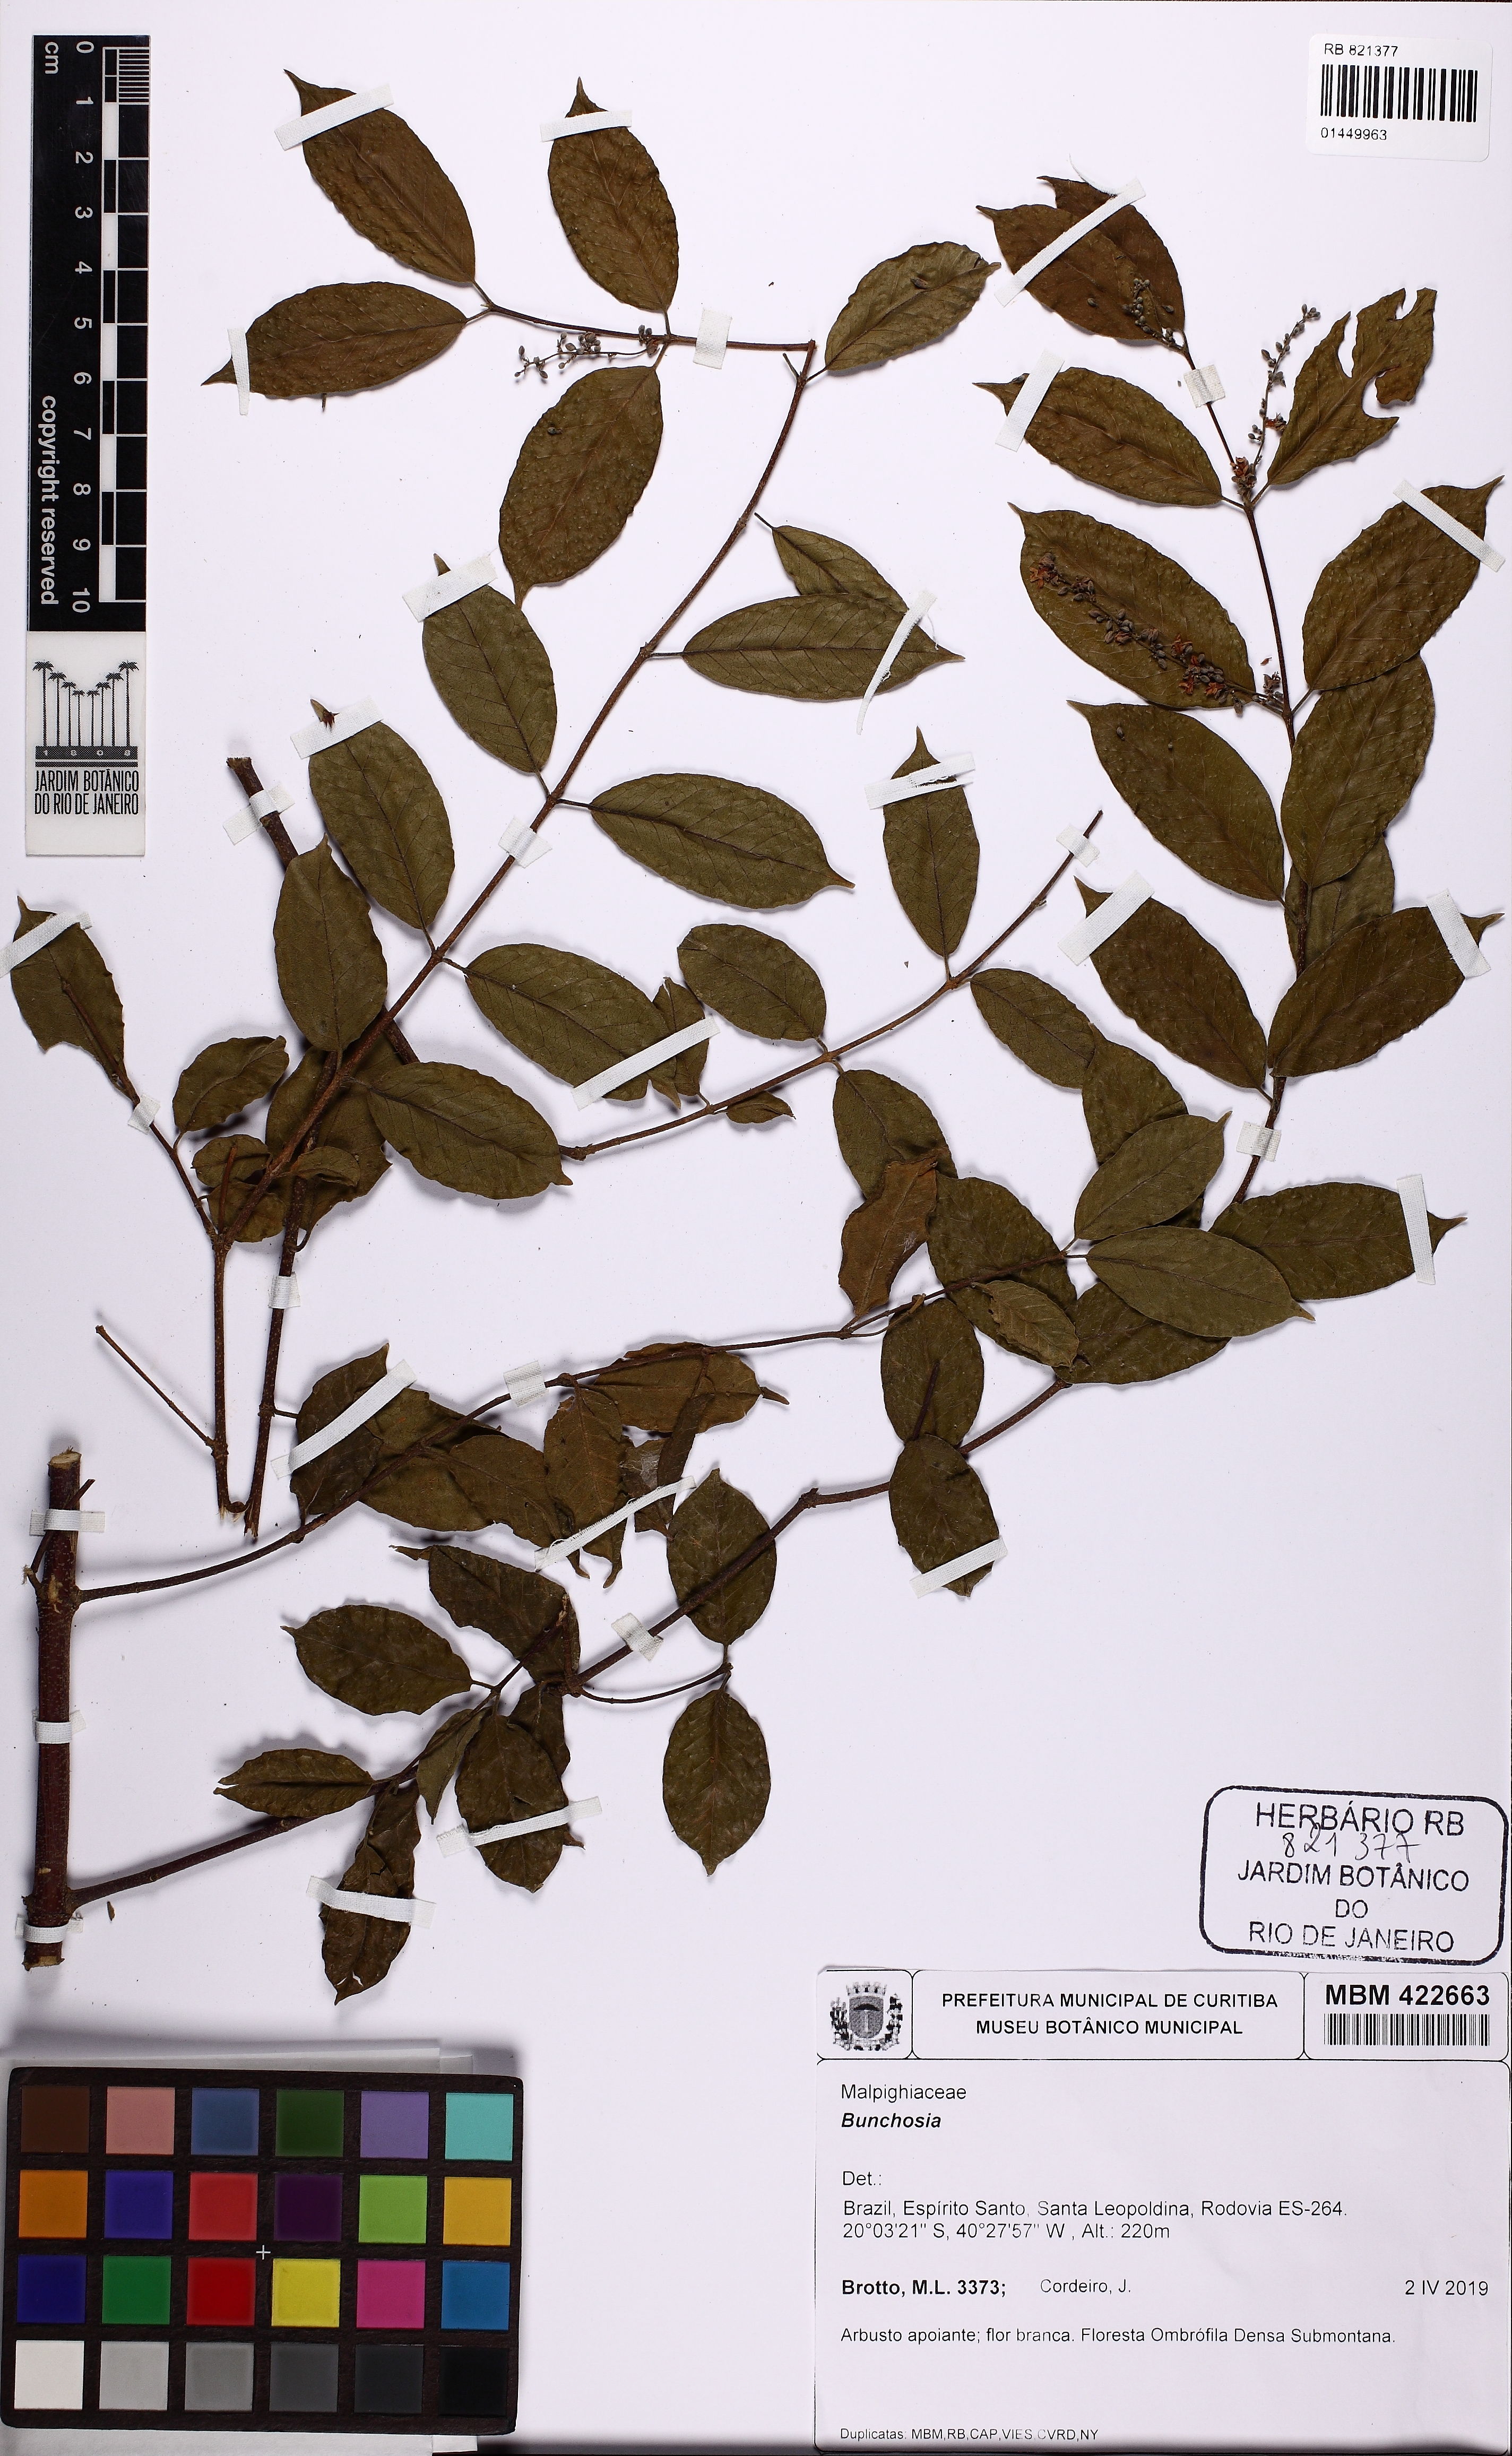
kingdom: Plantae
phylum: Tracheophyta
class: Magnoliopsida
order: Malpighiales
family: Trigoniaceae
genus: Trigonia
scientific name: Trigonia
